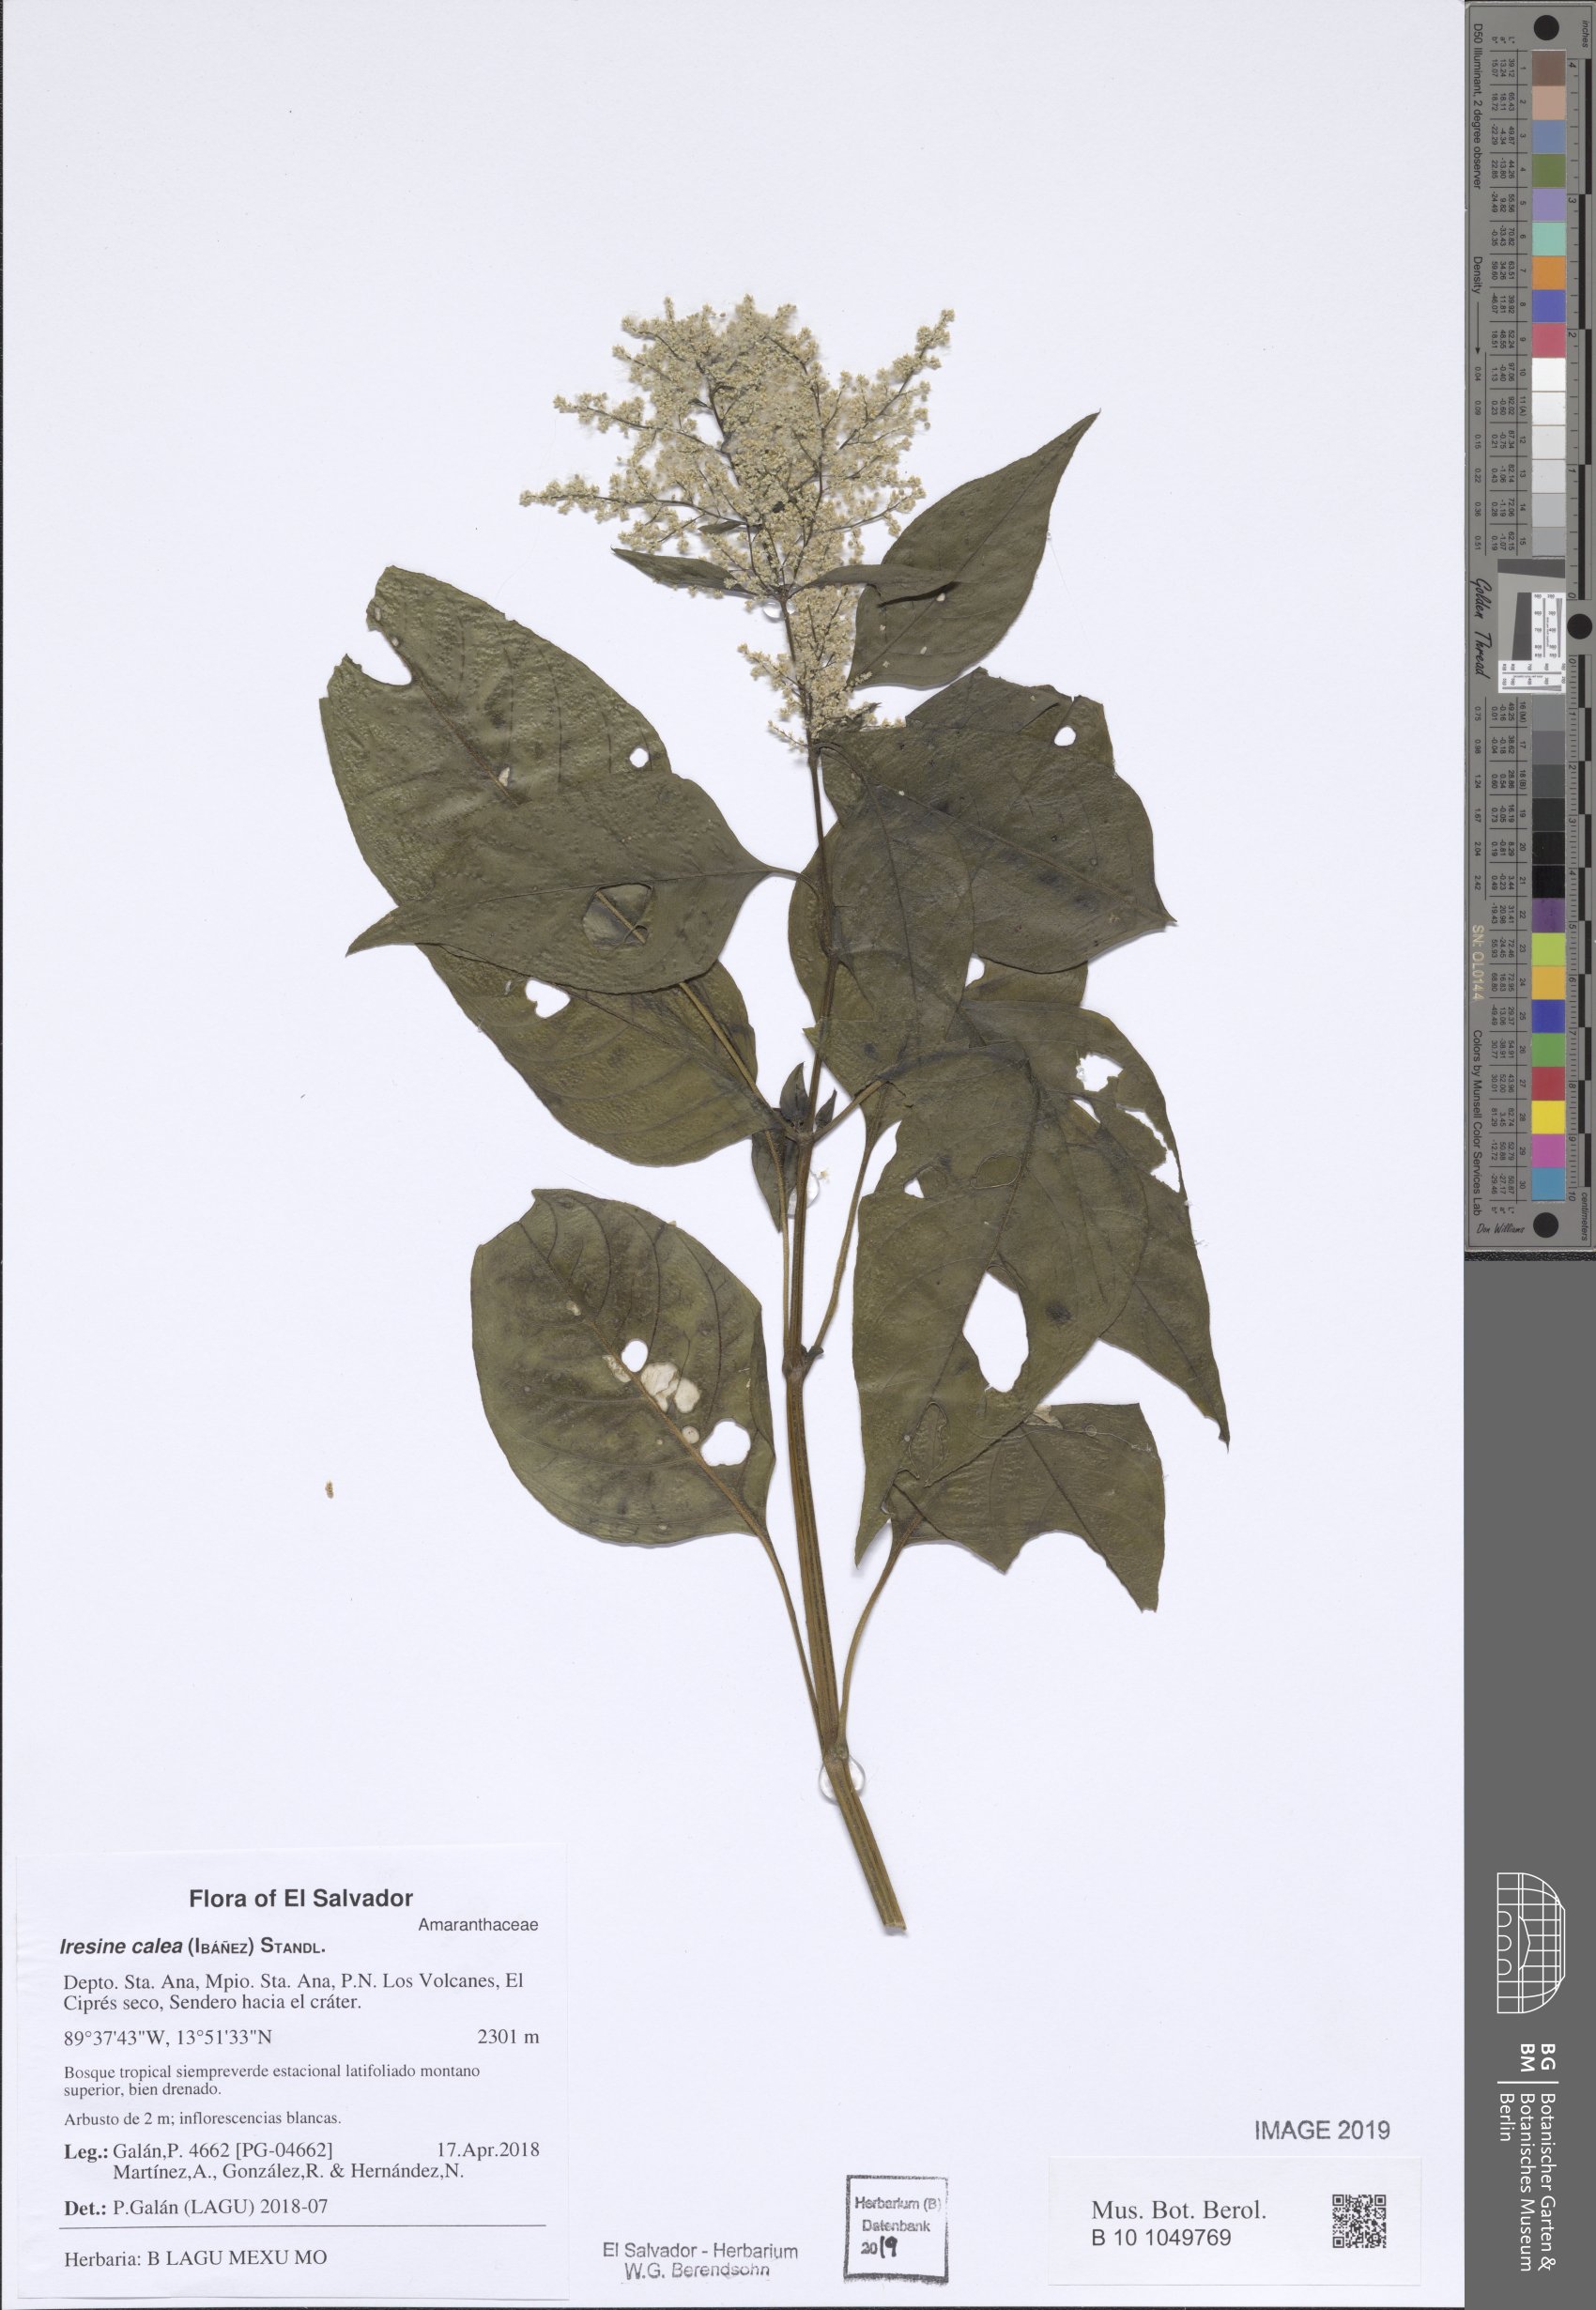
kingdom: Plantae
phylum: Tracheophyta
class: Magnoliopsida
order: Piperales
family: Piperaceae
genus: Peperomia
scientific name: Peperomia
